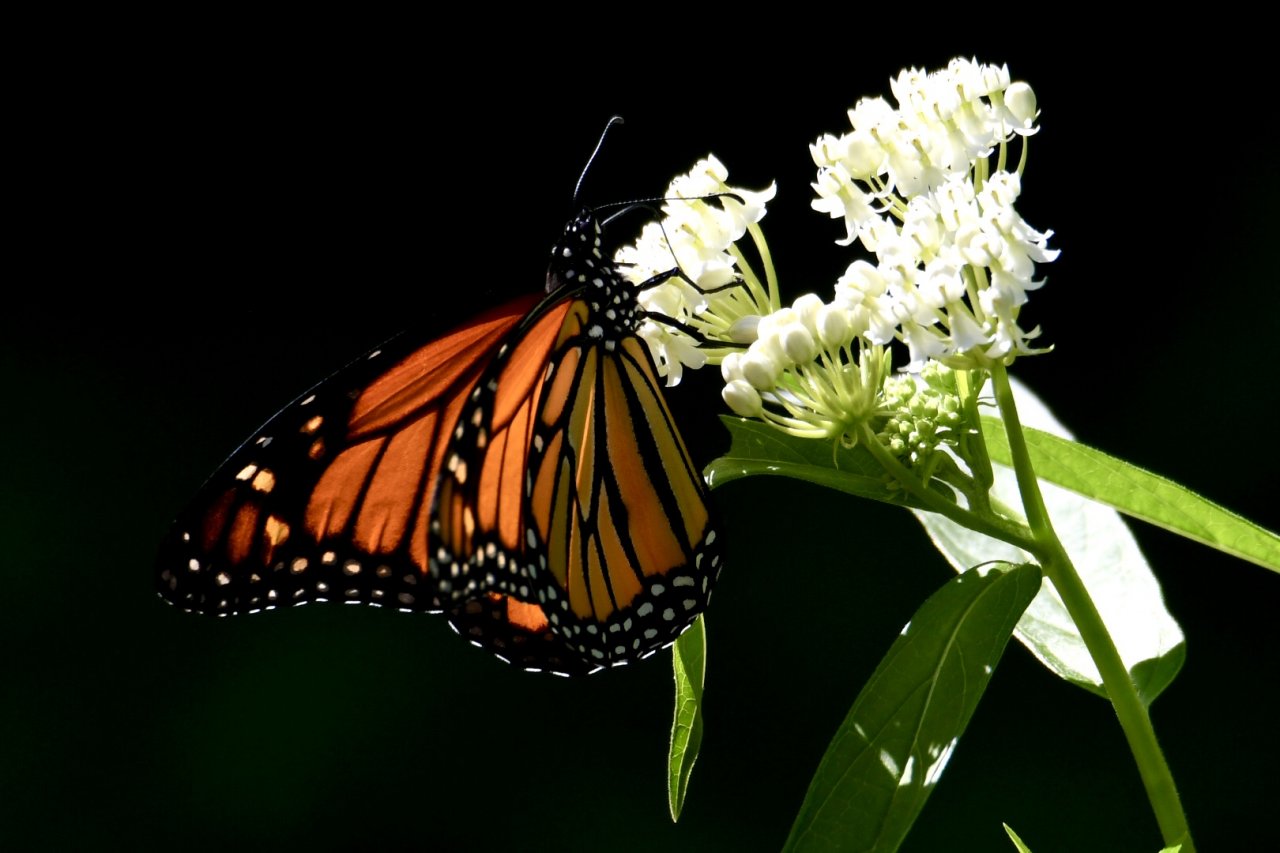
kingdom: Animalia
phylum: Arthropoda
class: Insecta
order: Lepidoptera
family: Nymphalidae
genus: Danaus
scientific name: Danaus plexippus
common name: Monarch
